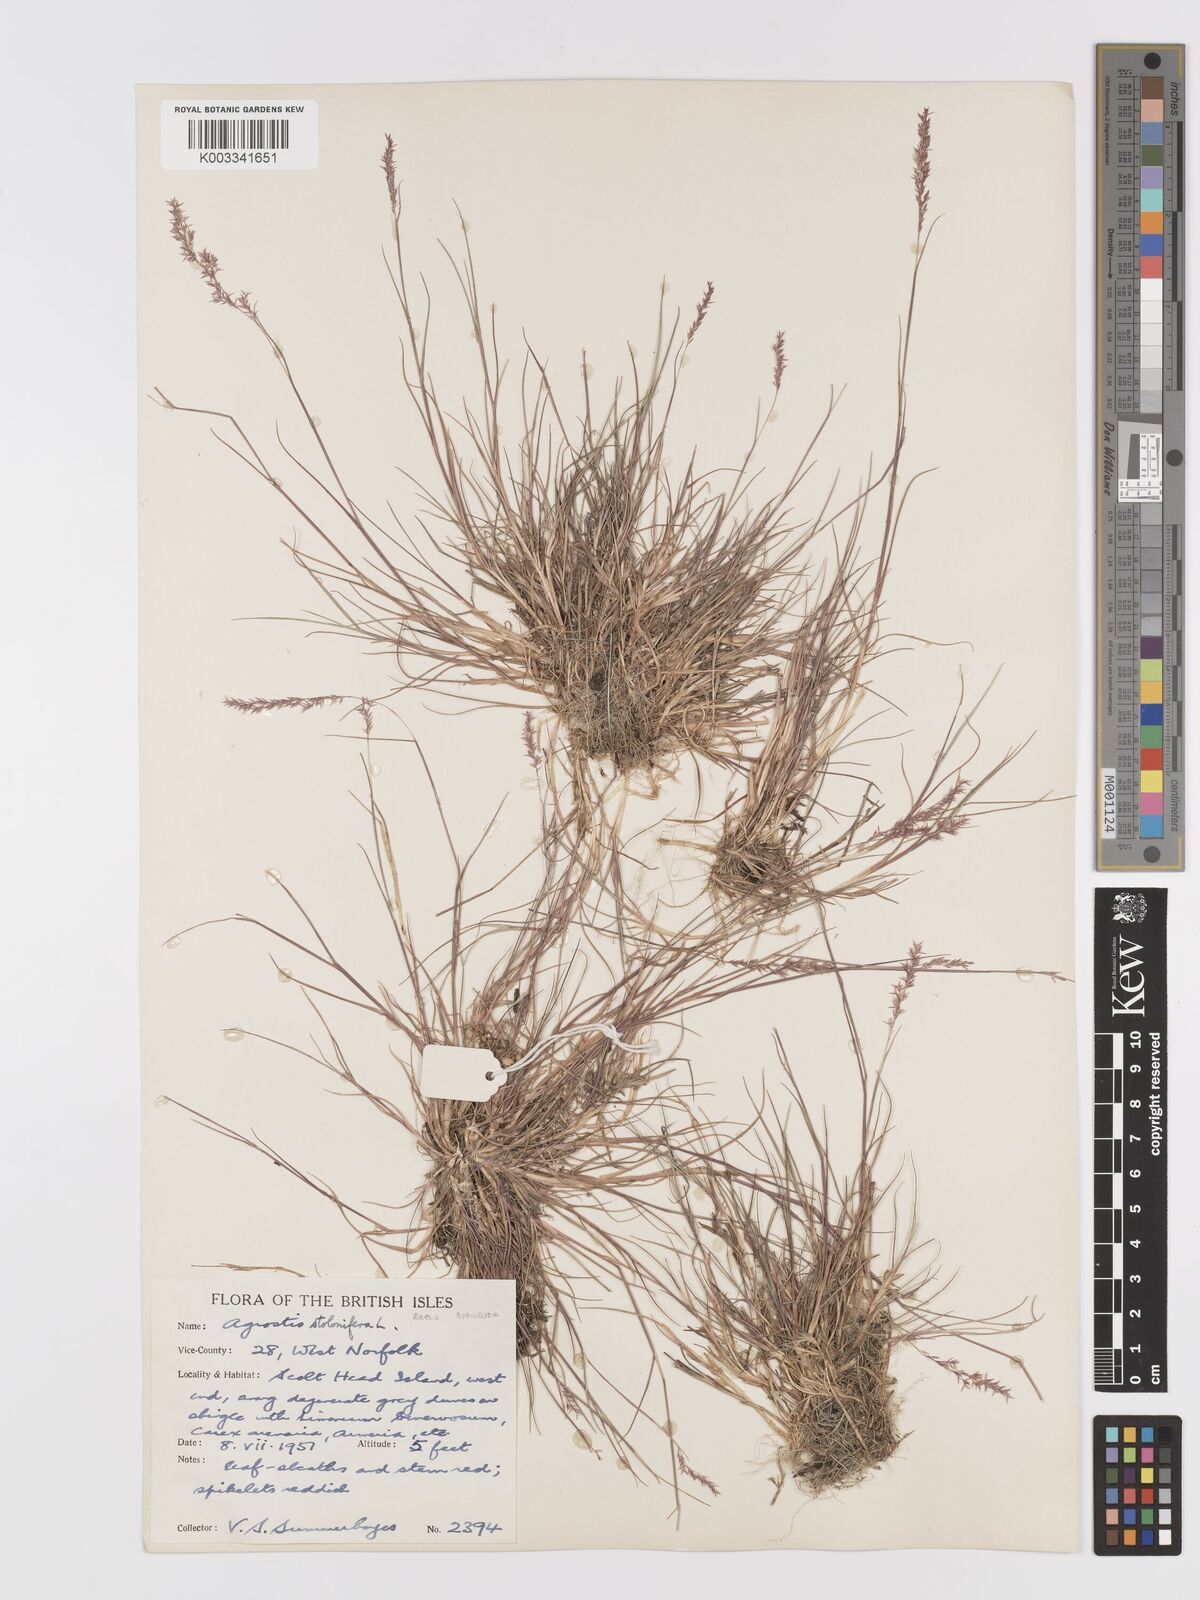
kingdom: Plantae
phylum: Tracheophyta
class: Liliopsida
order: Poales
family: Poaceae
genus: Agrostis
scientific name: Agrostis stolonifera
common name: Creeping bentgrass
